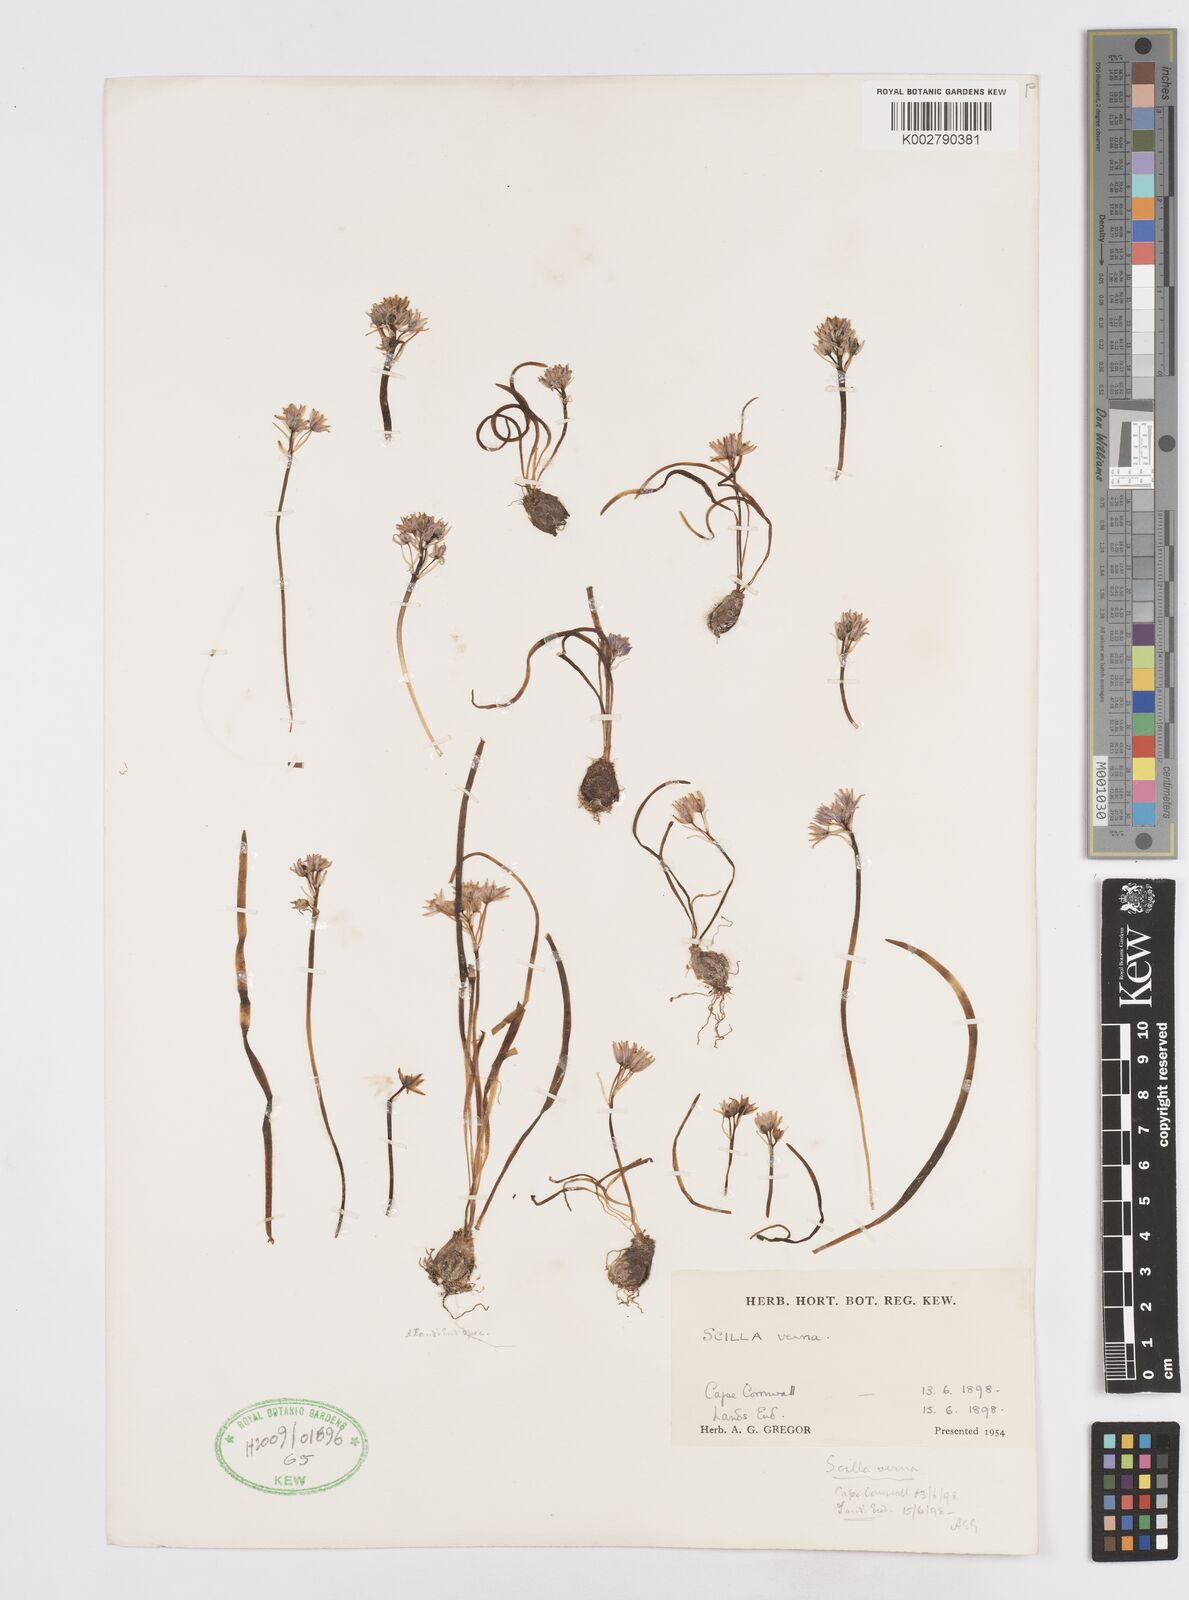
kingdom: Plantae
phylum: Tracheophyta
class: Liliopsida
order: Asparagales
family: Asparagaceae
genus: Scilla
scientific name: Scilla verna
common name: Spring squill
